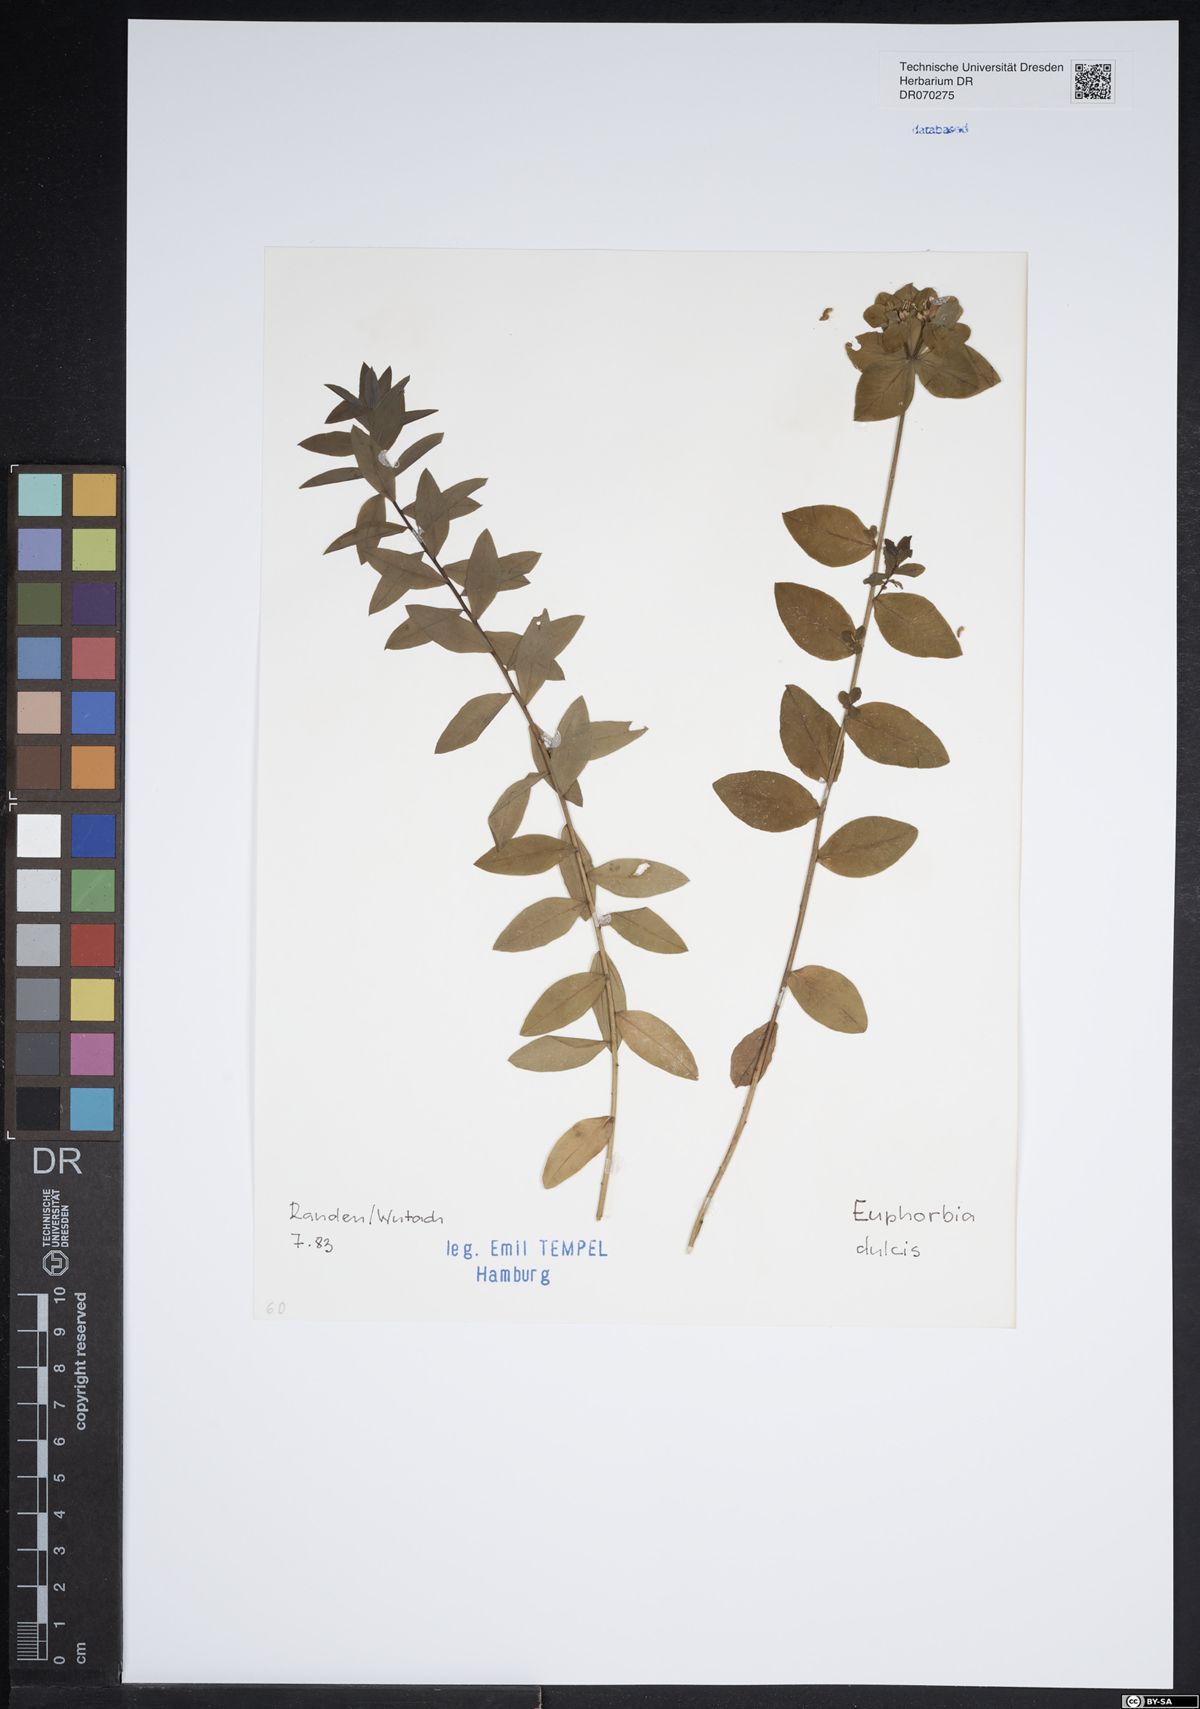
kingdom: Plantae
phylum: Tracheophyta
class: Magnoliopsida
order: Malpighiales
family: Euphorbiaceae
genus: Euphorbia
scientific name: Euphorbia dulcis
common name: Sweet spurge
